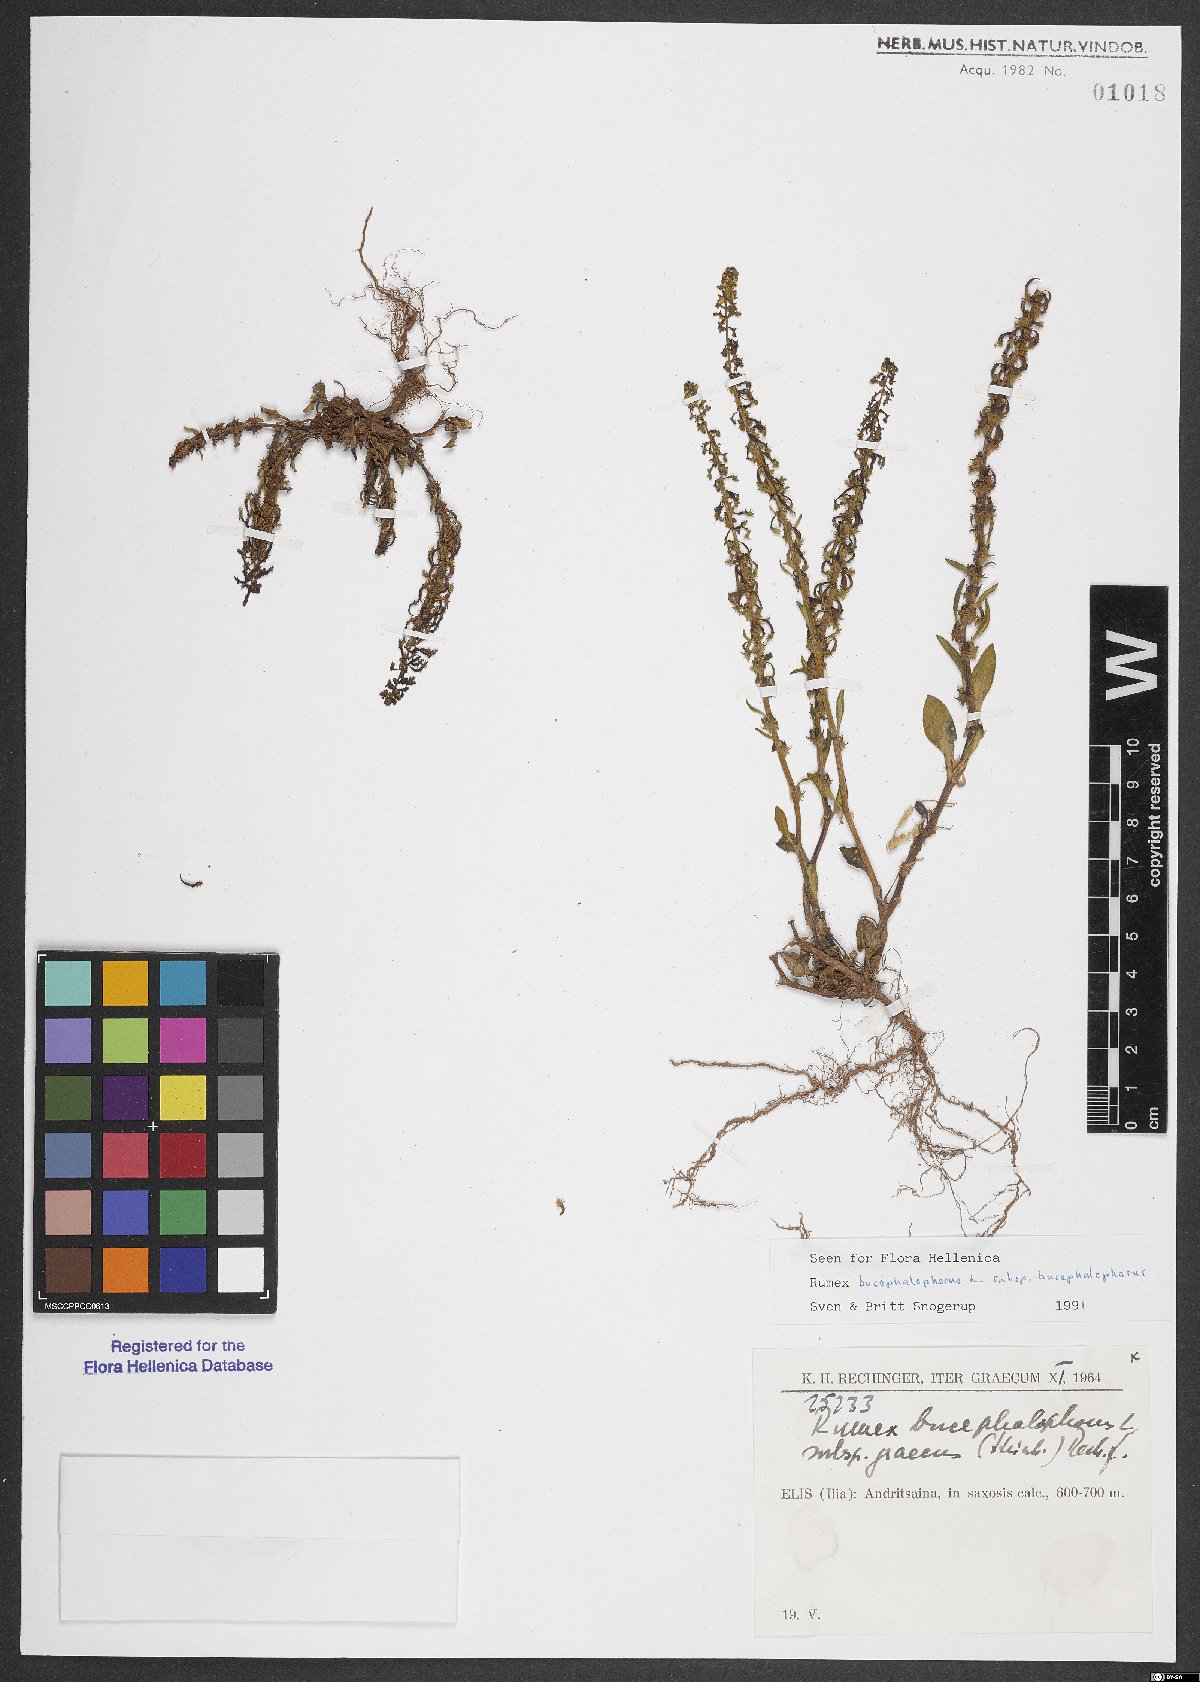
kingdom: Plantae
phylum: Tracheophyta
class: Magnoliopsida
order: Caryophyllales
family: Polygonaceae
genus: Rumex
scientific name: Rumex bucephalophorus
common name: Red dock
